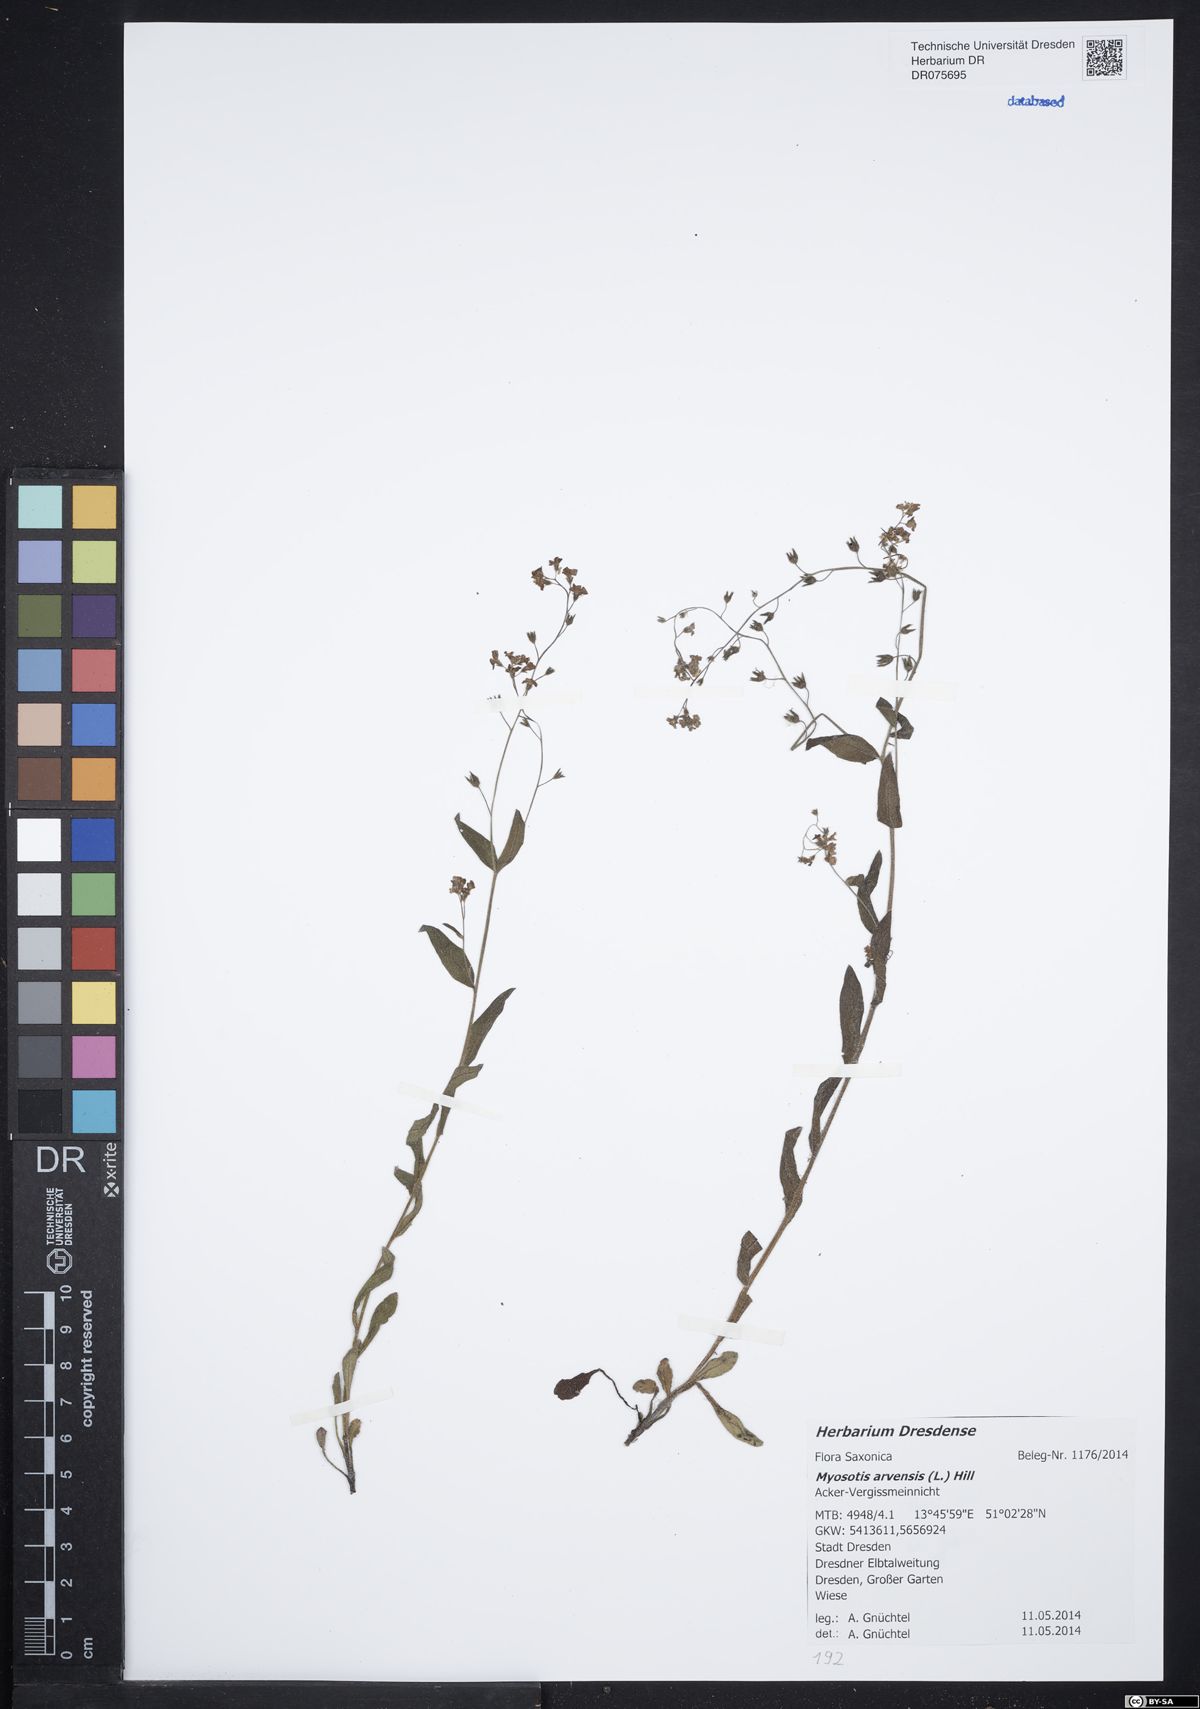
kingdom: Plantae
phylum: Tracheophyta
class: Magnoliopsida
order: Boraginales
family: Boraginaceae
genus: Myosotis
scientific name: Myosotis arvensis
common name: Field forget-me-not
